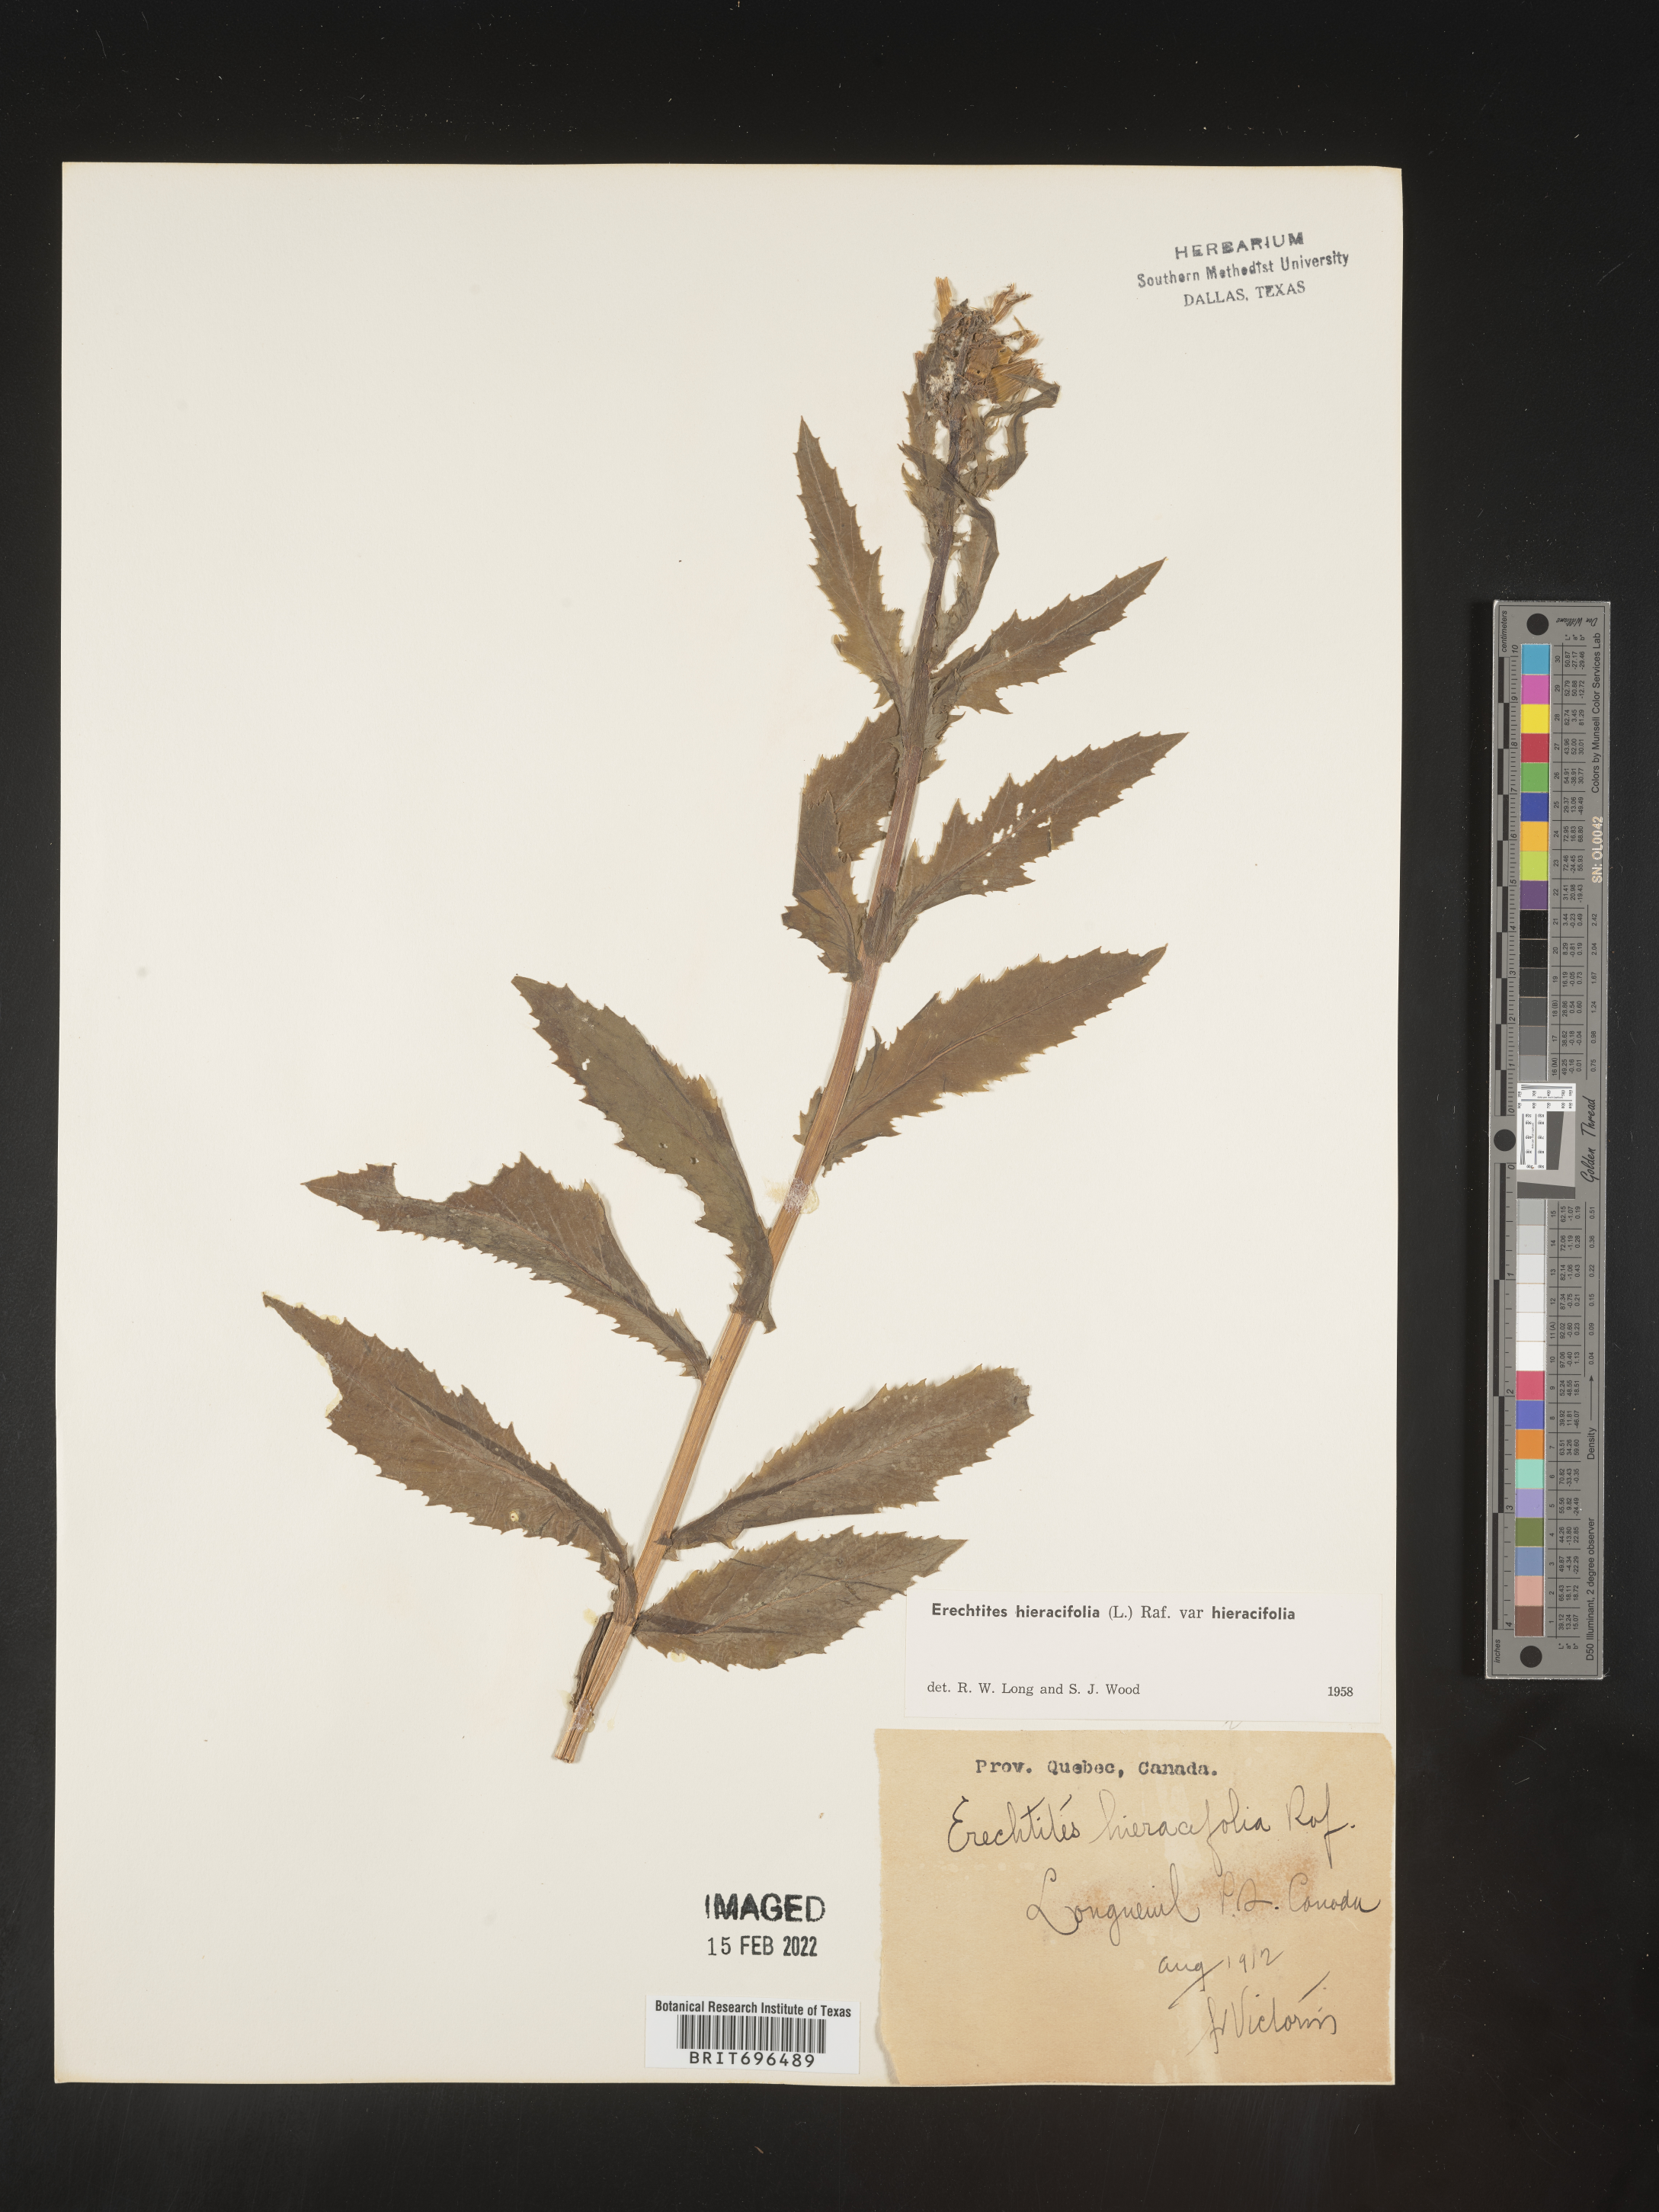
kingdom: Plantae
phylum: Tracheophyta
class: Magnoliopsida
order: Asterales
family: Asteraceae
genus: Erechtites
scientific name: Erechtites hieraciifolius
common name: American burnweed
